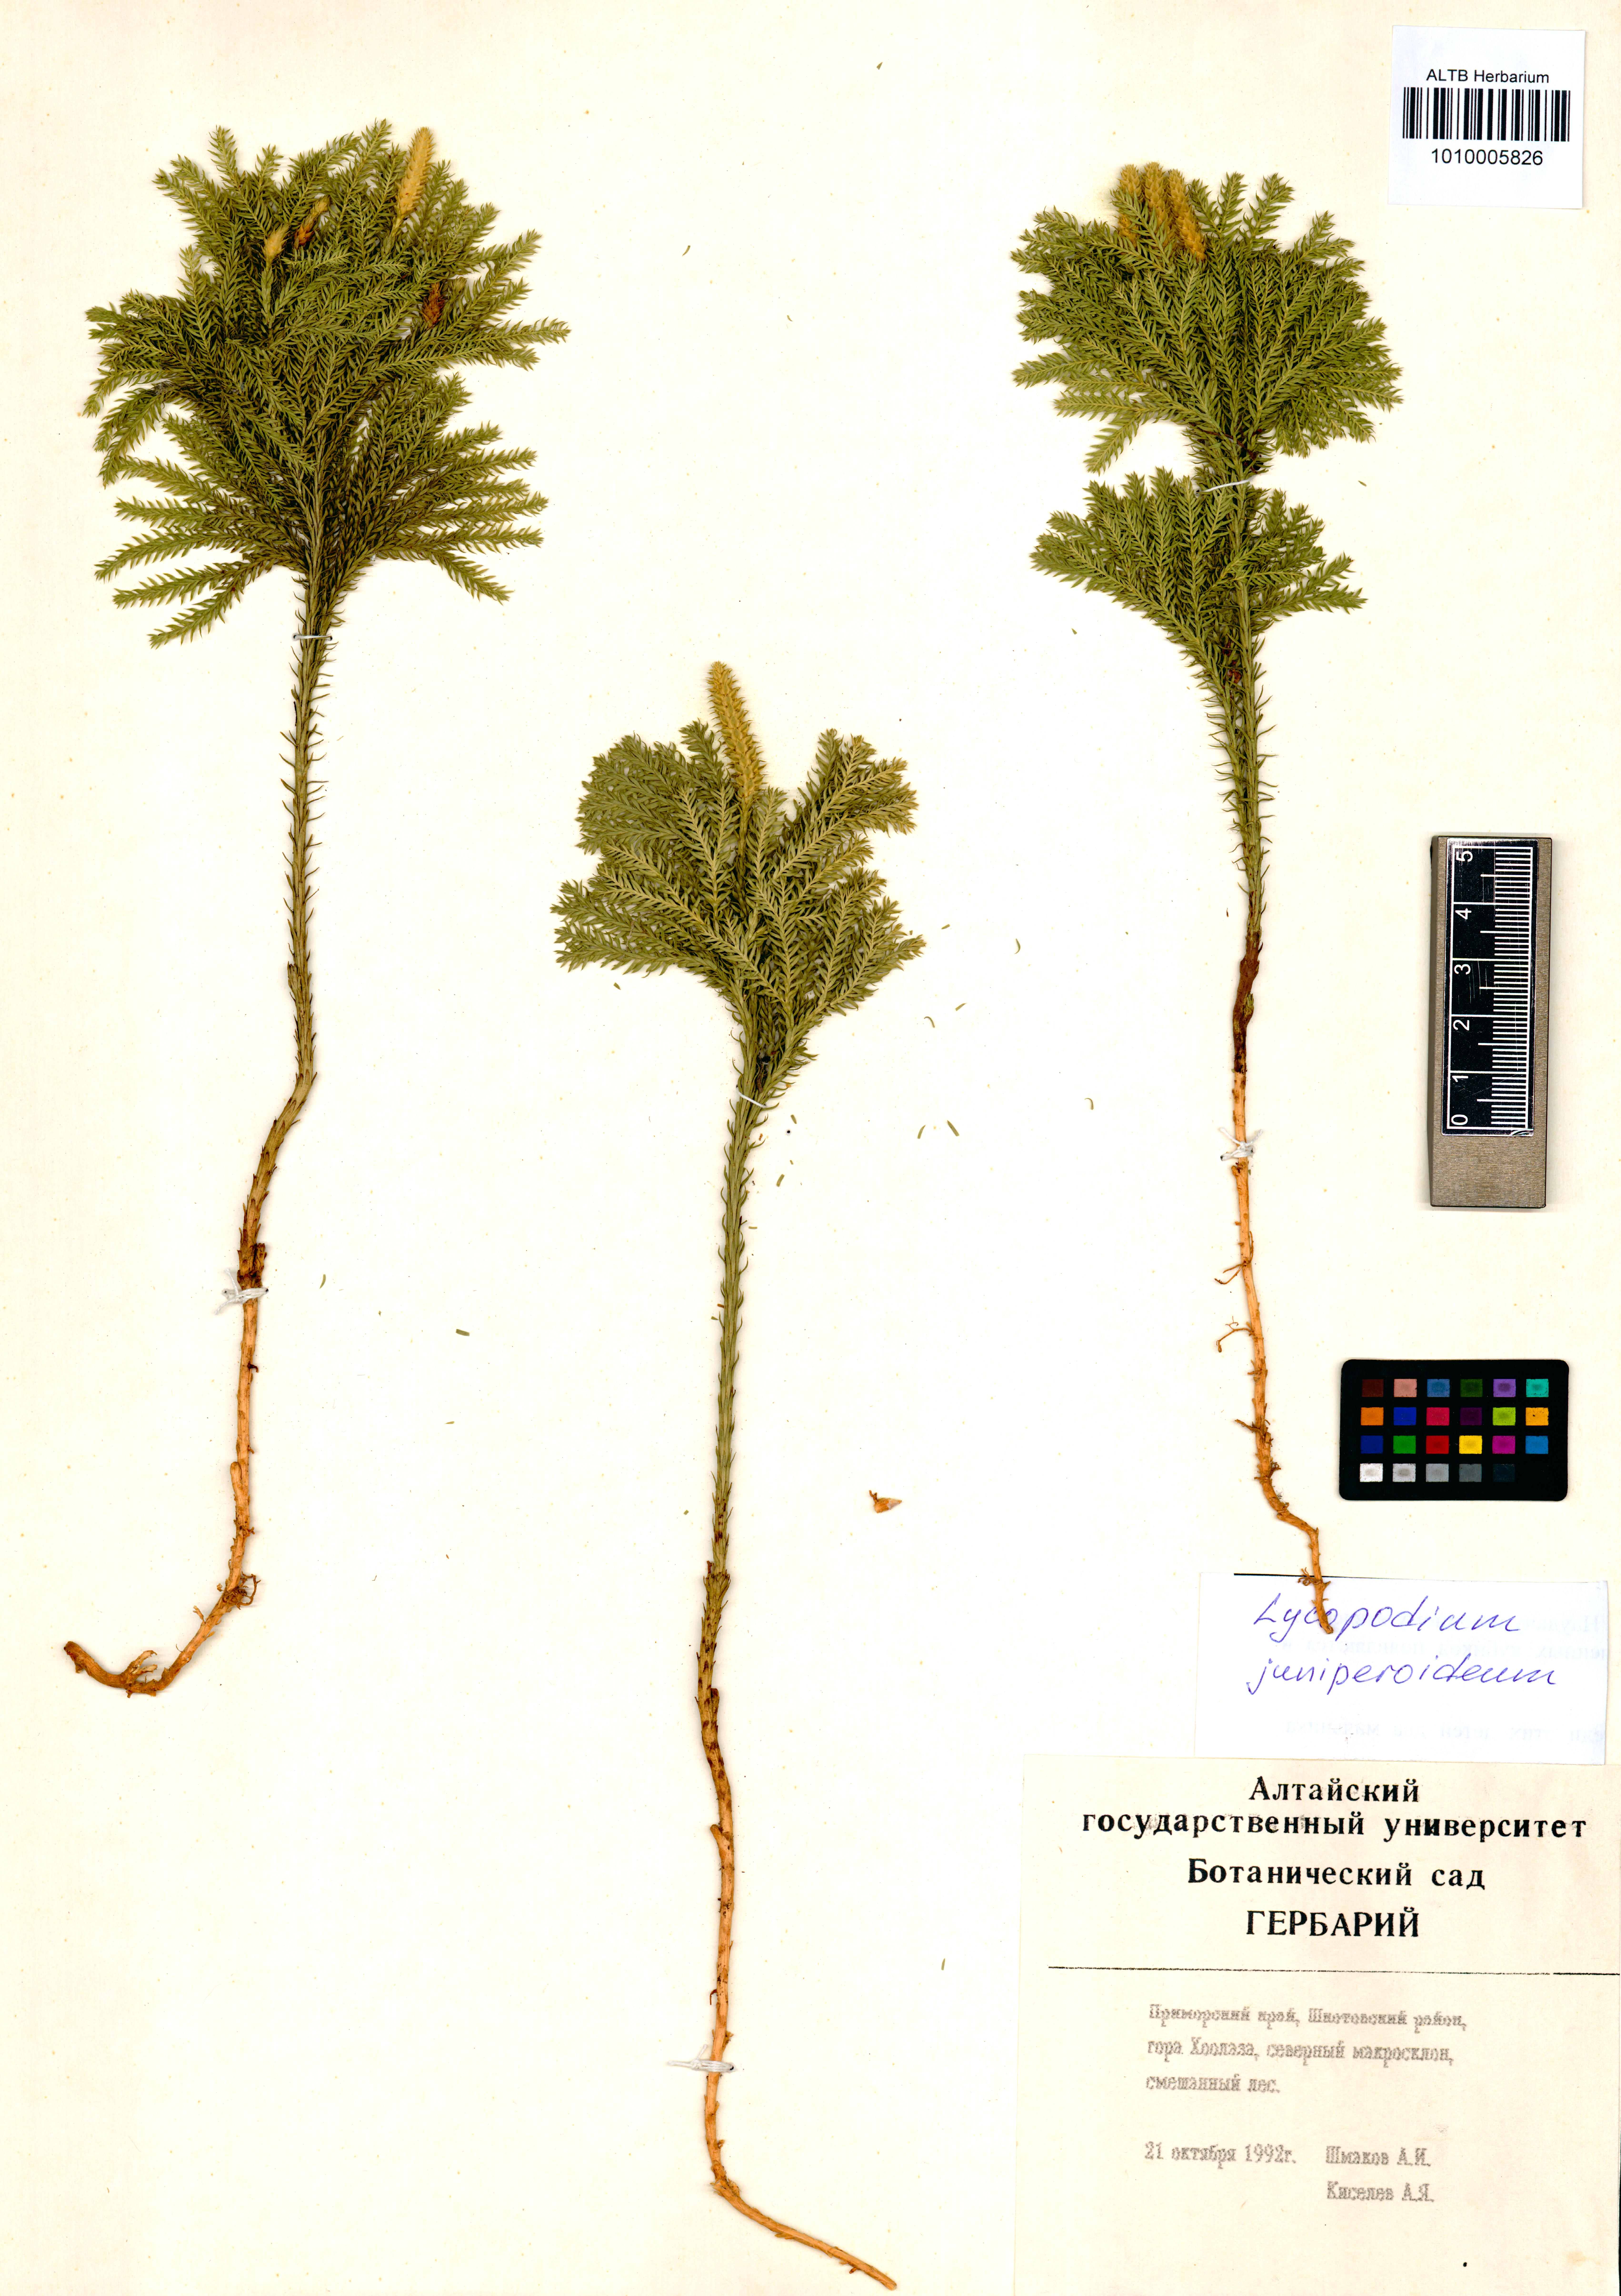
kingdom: Plantae
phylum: Tracheophyta
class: Lycopodiopsida
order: Lycopodiales
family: Lycopodiaceae
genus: Dendrolycopodium
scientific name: Dendrolycopodium juniperoideum
